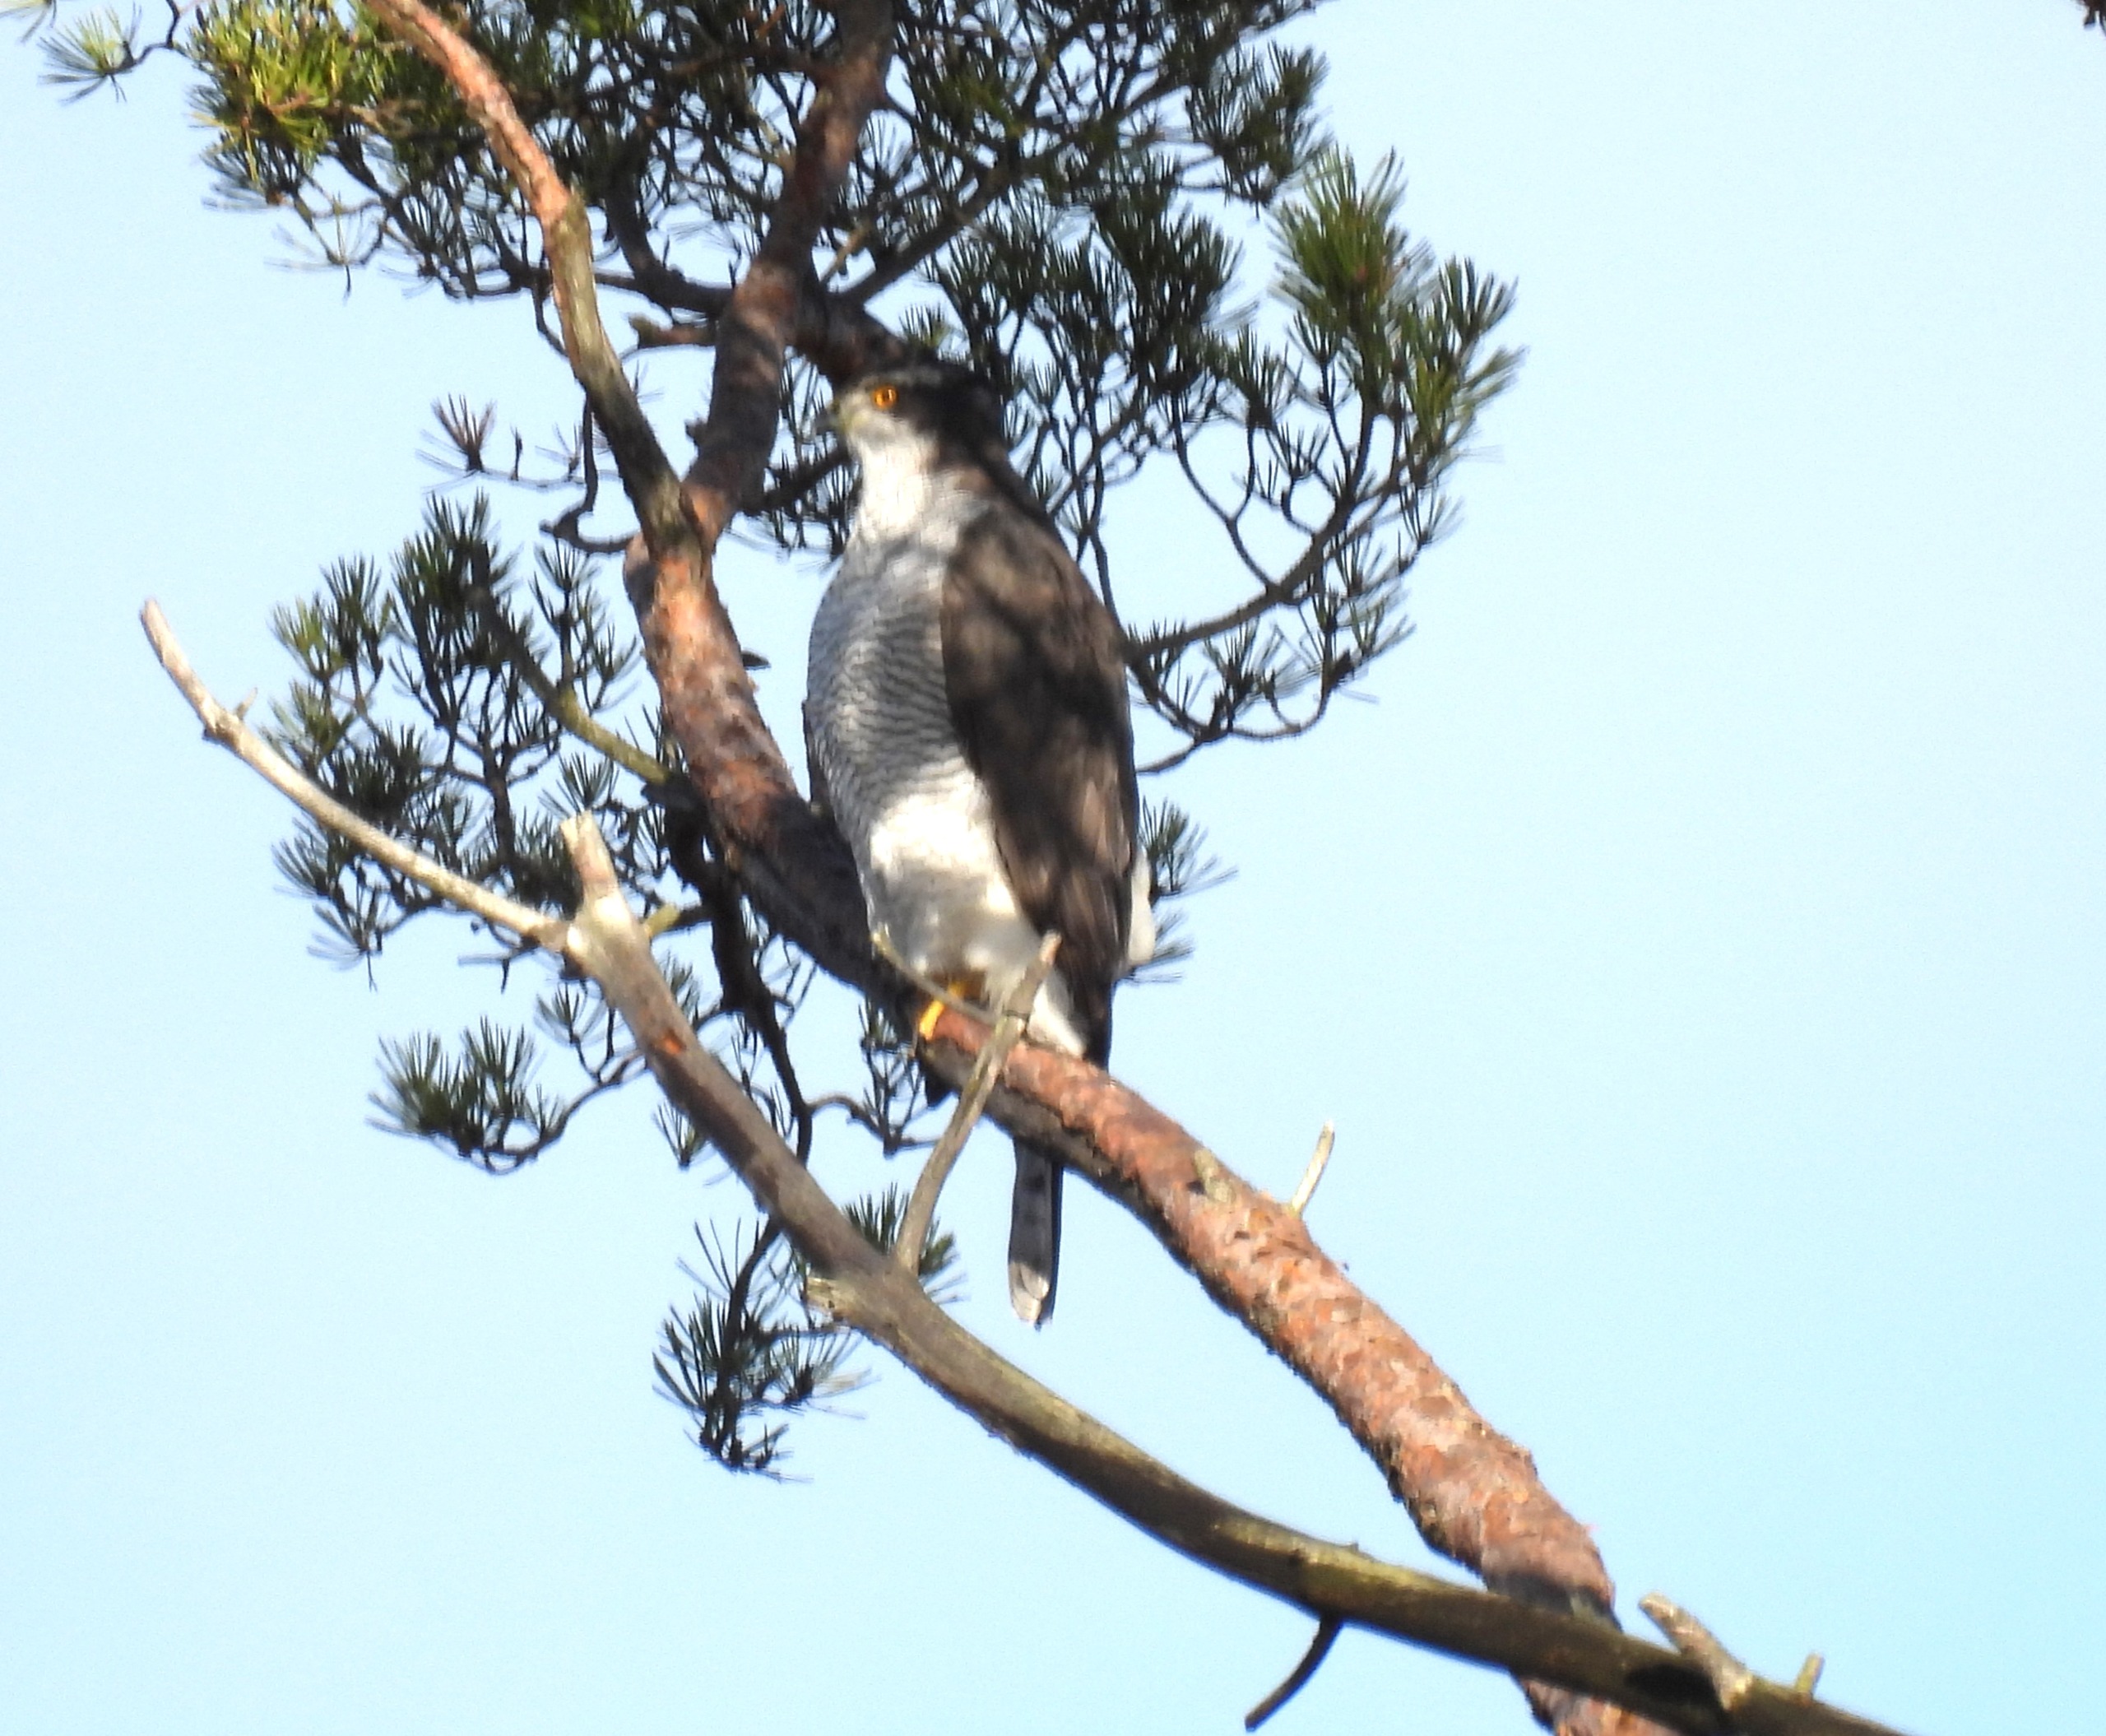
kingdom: Animalia
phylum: Chordata
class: Aves
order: Accipitriformes
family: Accipitridae
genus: Accipiter
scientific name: Accipiter gentilis
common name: Duehøg
